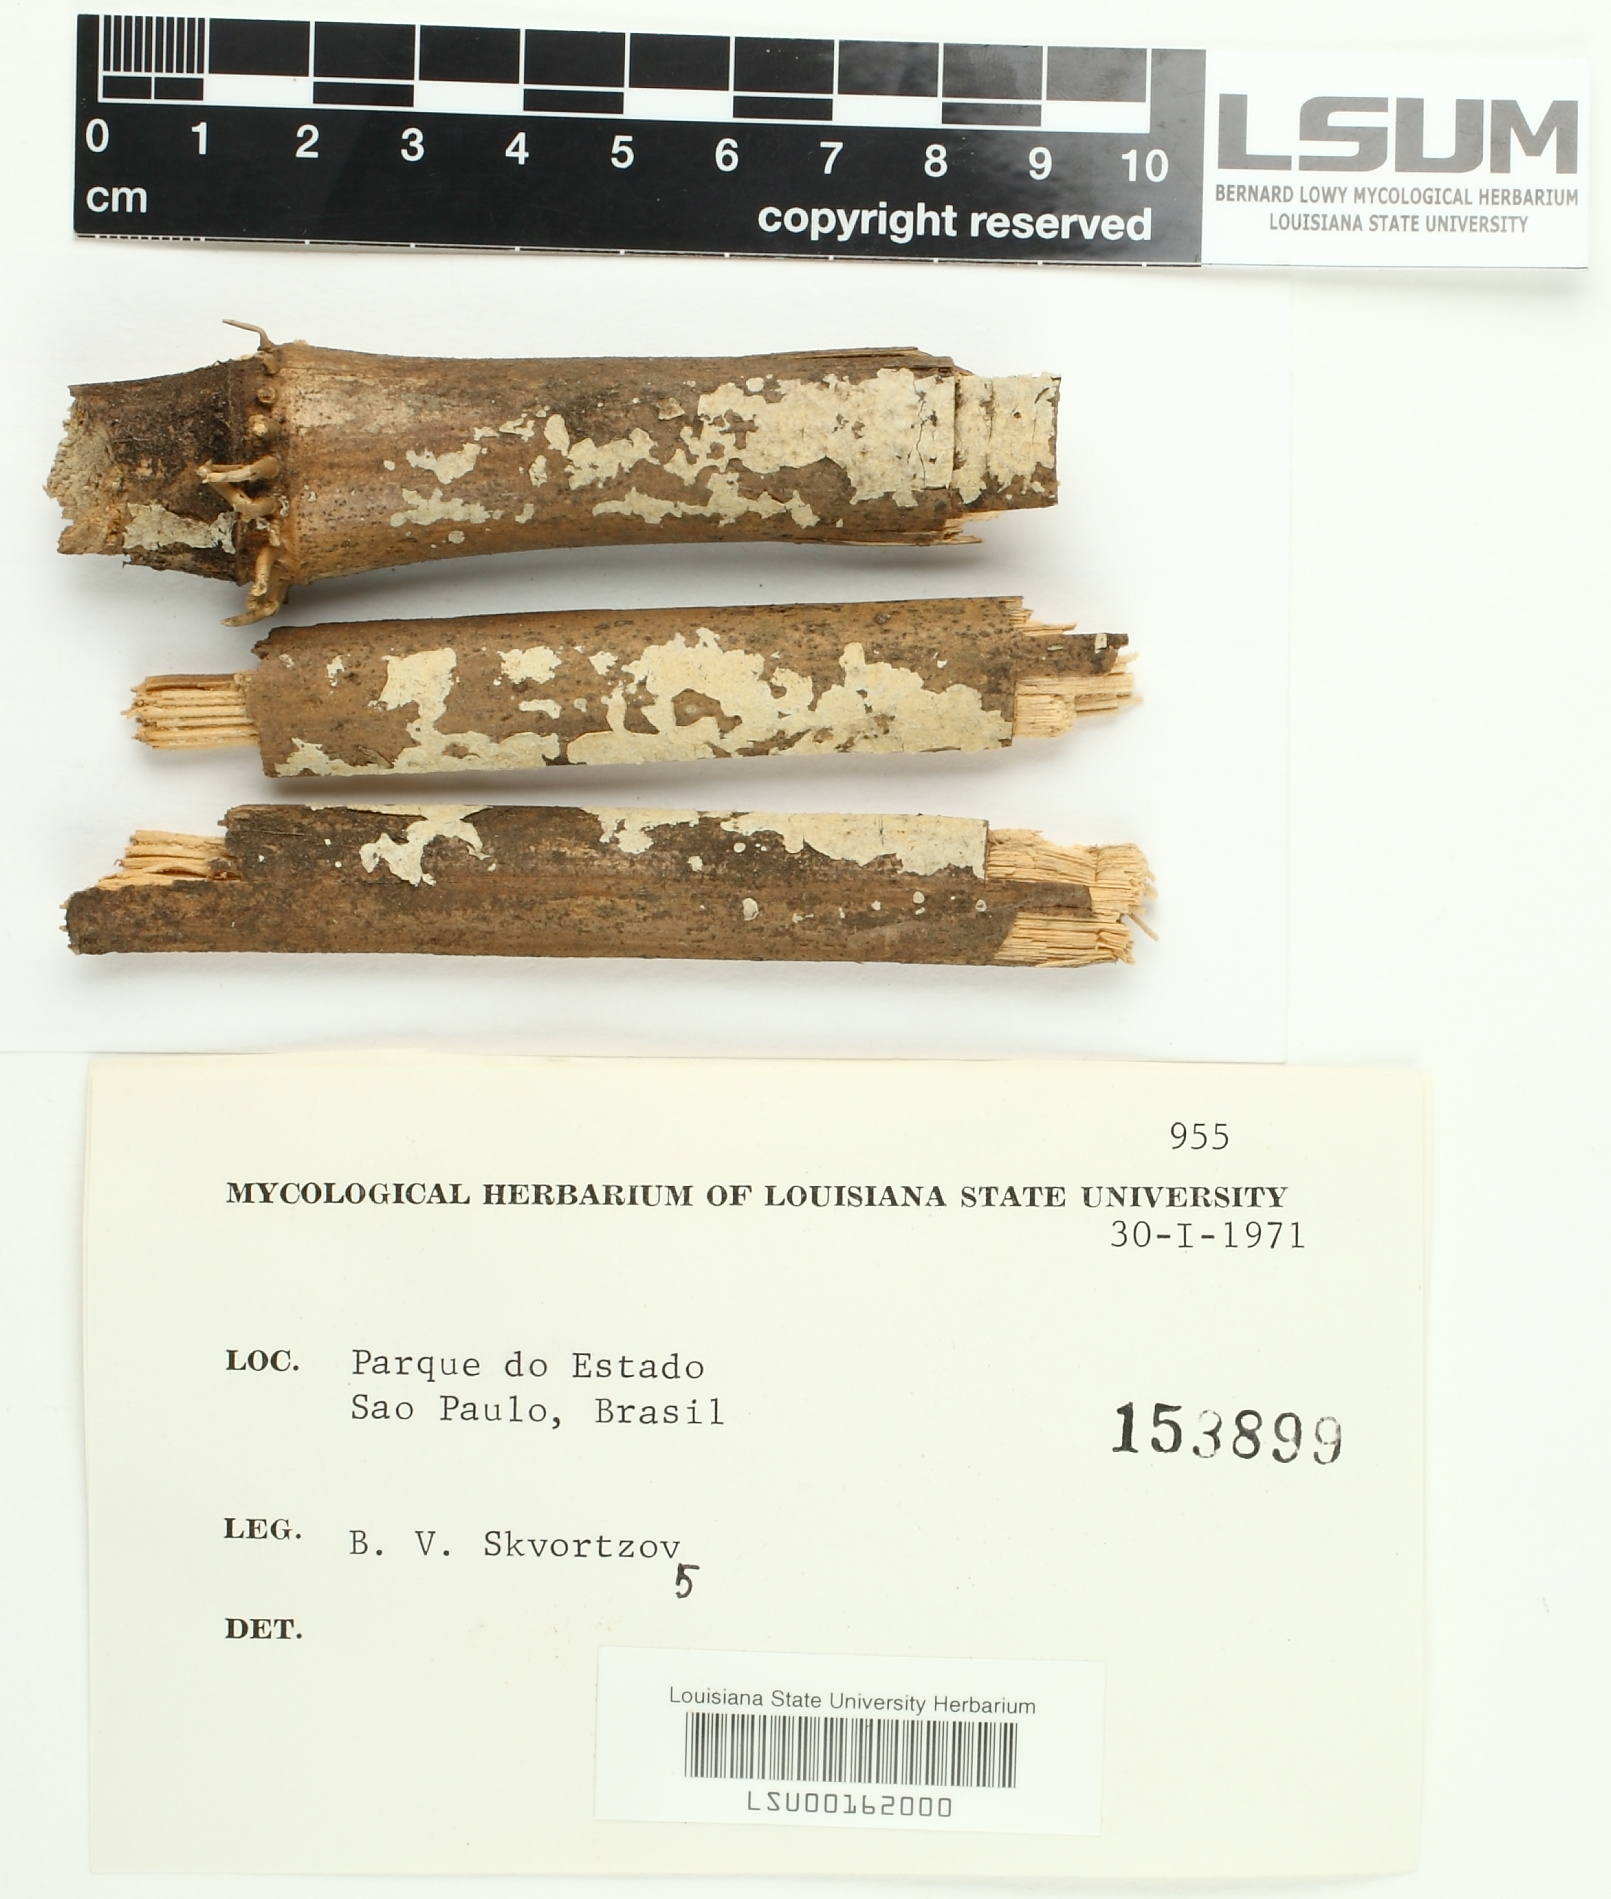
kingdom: Fungi
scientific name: Fungi
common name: Fungi
